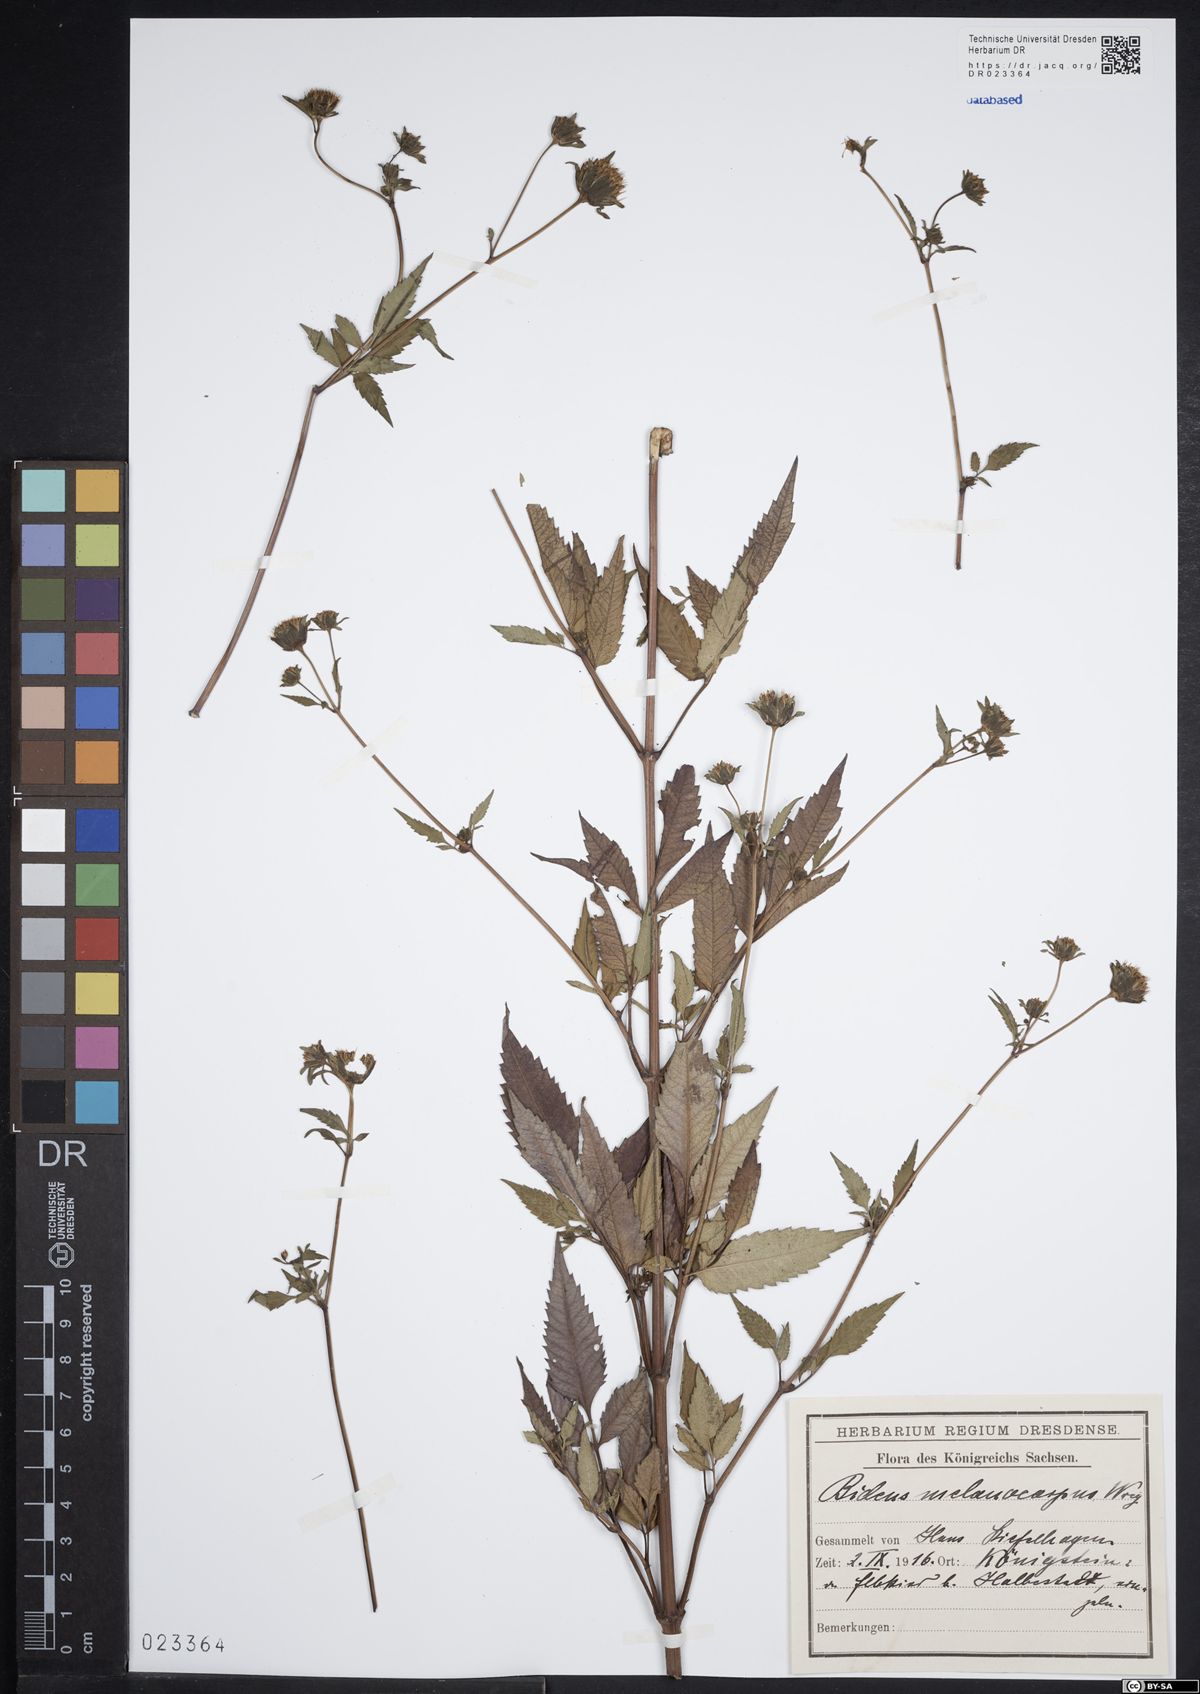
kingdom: Plantae
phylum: Tracheophyta
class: Magnoliopsida
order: Asterales
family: Asteraceae
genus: Bidens
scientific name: Bidens frondosa
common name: Beggarticks
